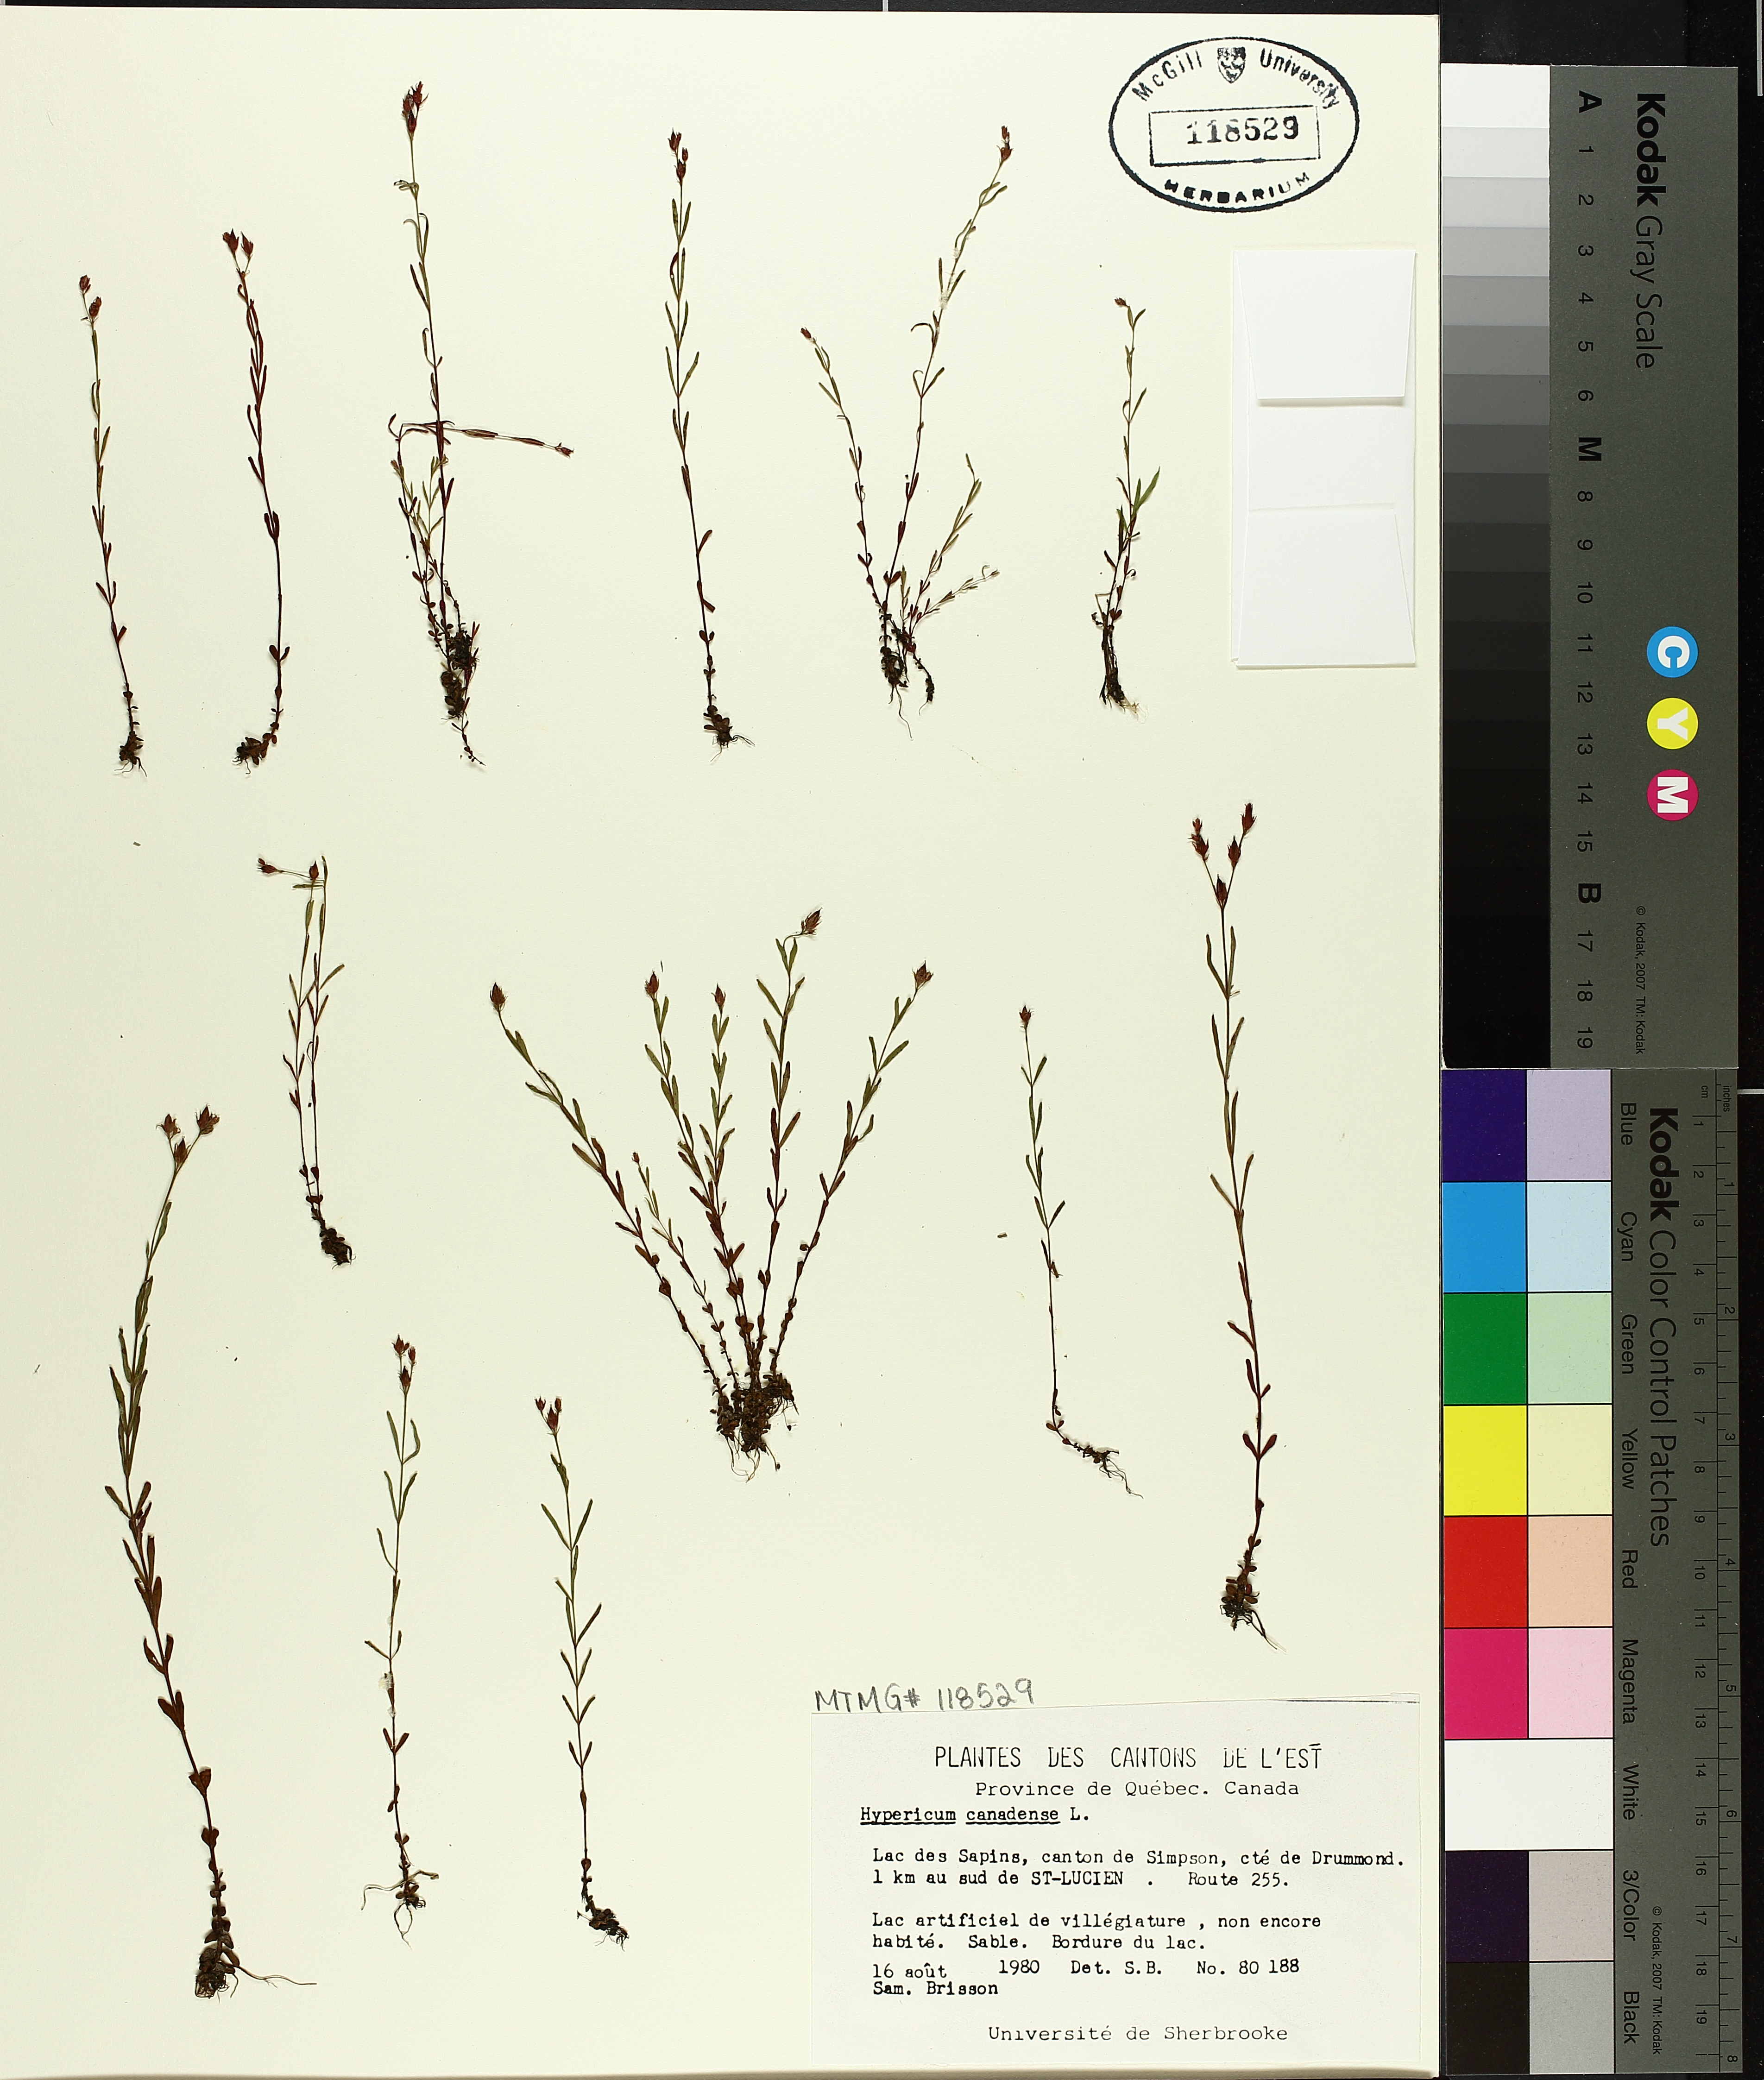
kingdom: Plantae
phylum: Tracheophyta
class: Magnoliopsida
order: Malpighiales
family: Hypericaceae
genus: Hypericum
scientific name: Hypericum canadense
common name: Irish st. john's-wort
